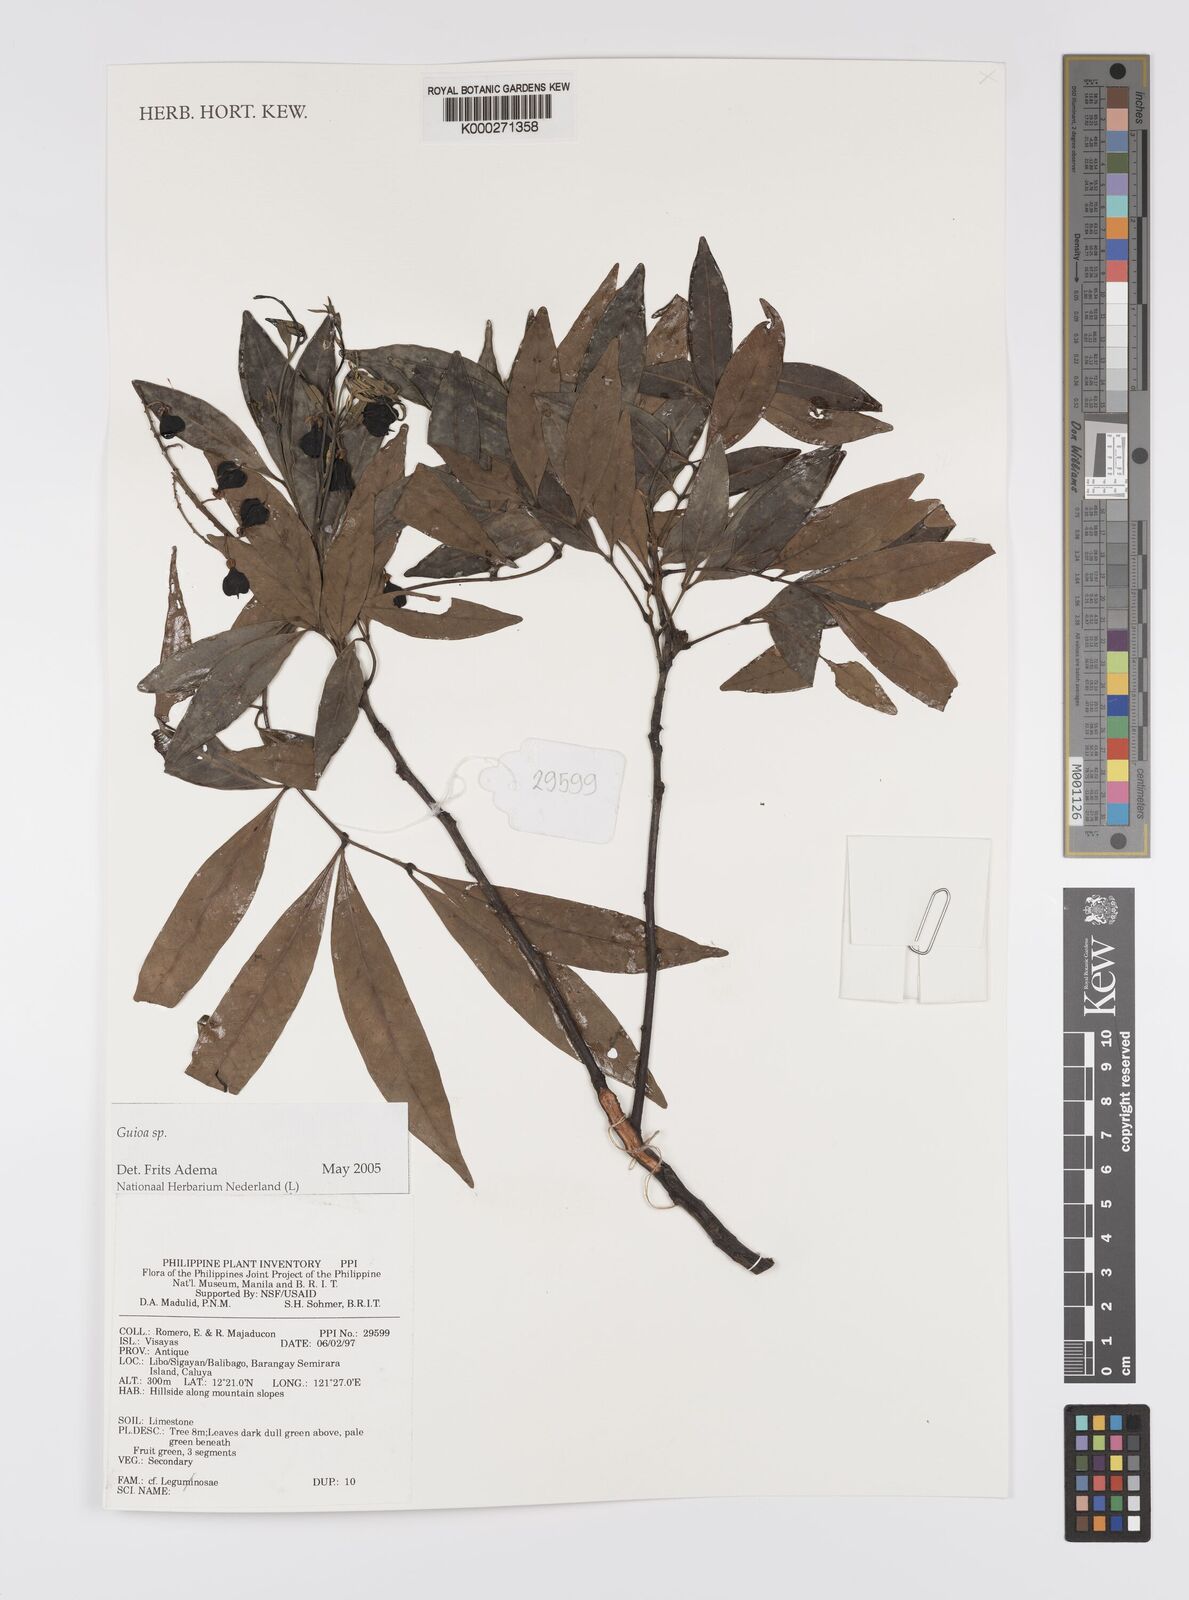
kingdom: Plantae
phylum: Tracheophyta
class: Magnoliopsida
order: Sapindales
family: Sapindaceae
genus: Guioa
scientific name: Guioa
